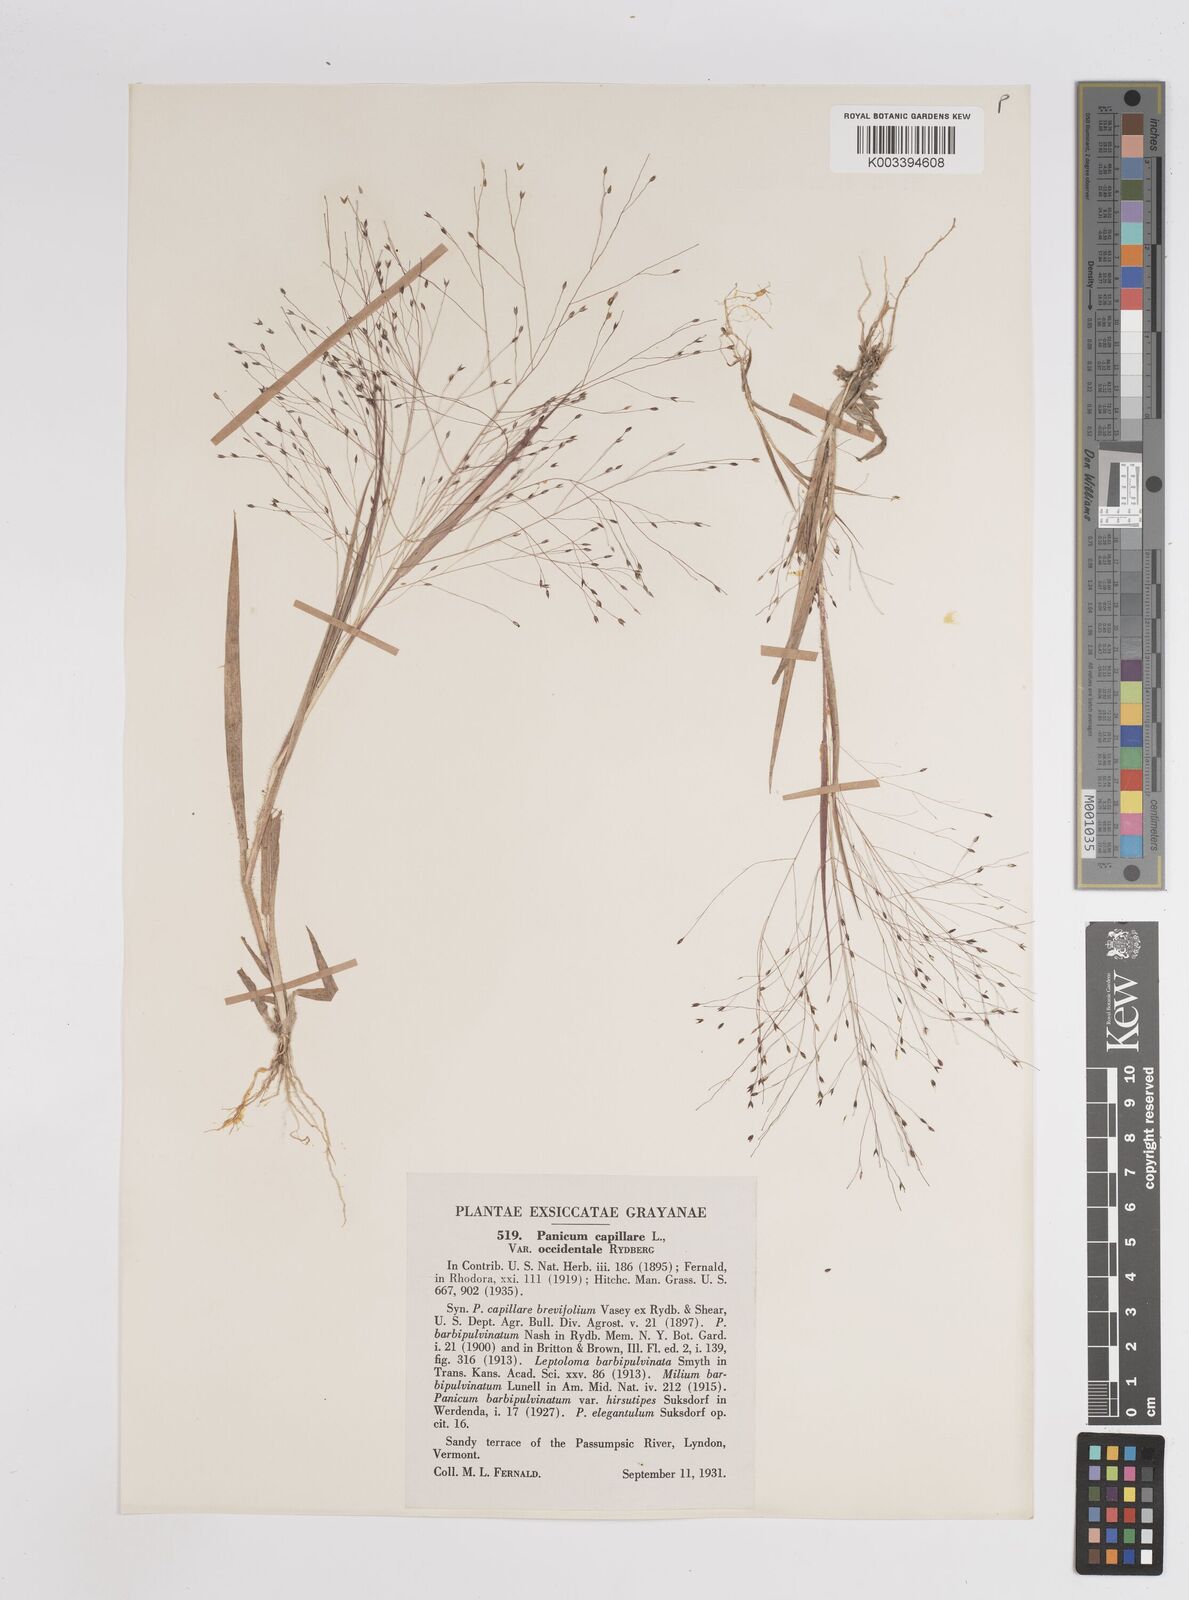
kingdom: Plantae
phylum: Tracheophyta
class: Liliopsida
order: Poales
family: Poaceae
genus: Panicum
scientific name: Panicum capillare
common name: Witch-grass
